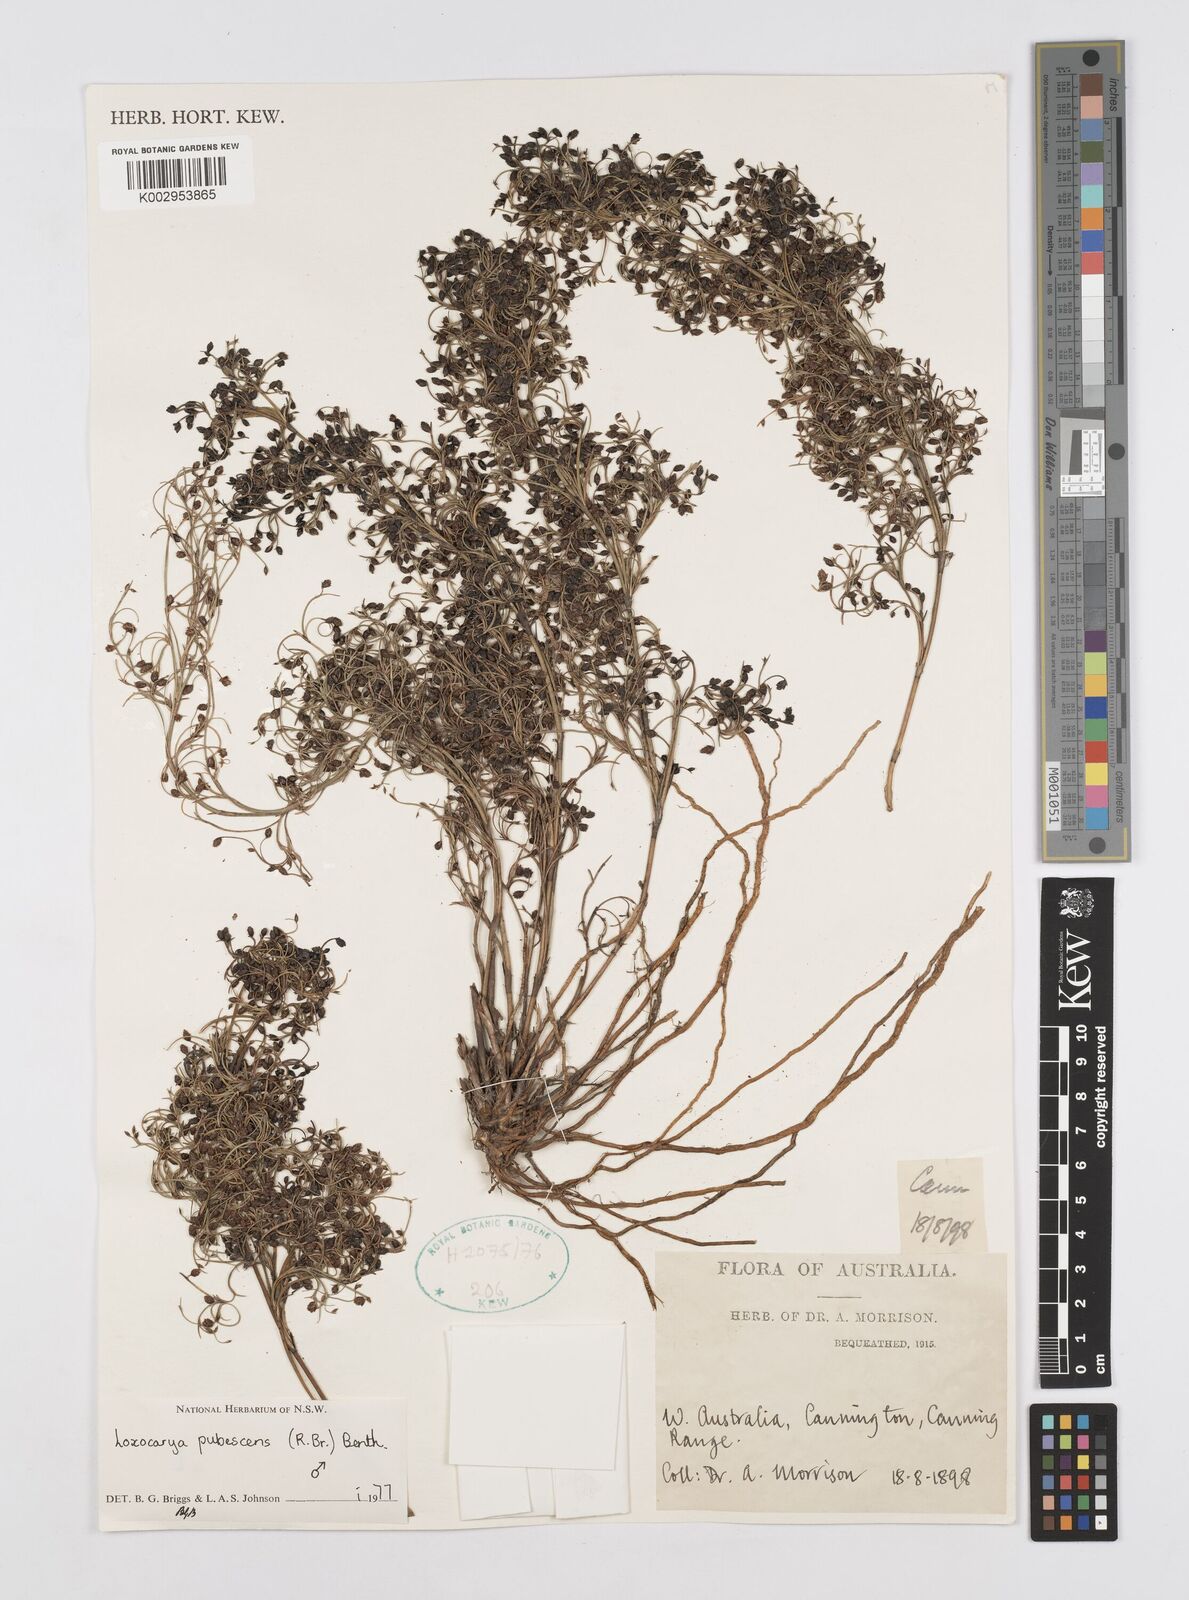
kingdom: Plantae
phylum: Tracheophyta
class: Liliopsida
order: Poales
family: Restionaceae
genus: Hypolaena
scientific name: Hypolaena pubescens
